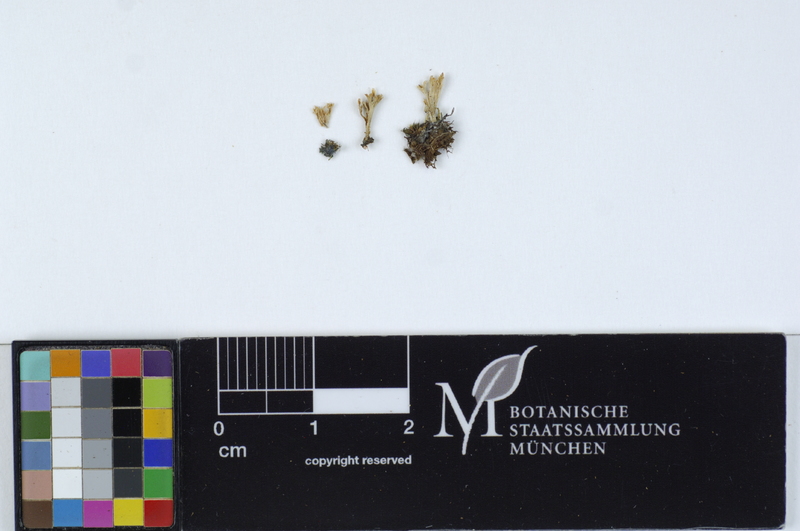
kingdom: Fungi
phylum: Basidiomycota
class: Agaricomycetes
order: Hymenochaetales
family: Rickenellaceae
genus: Cotylidia
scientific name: Cotylidia
